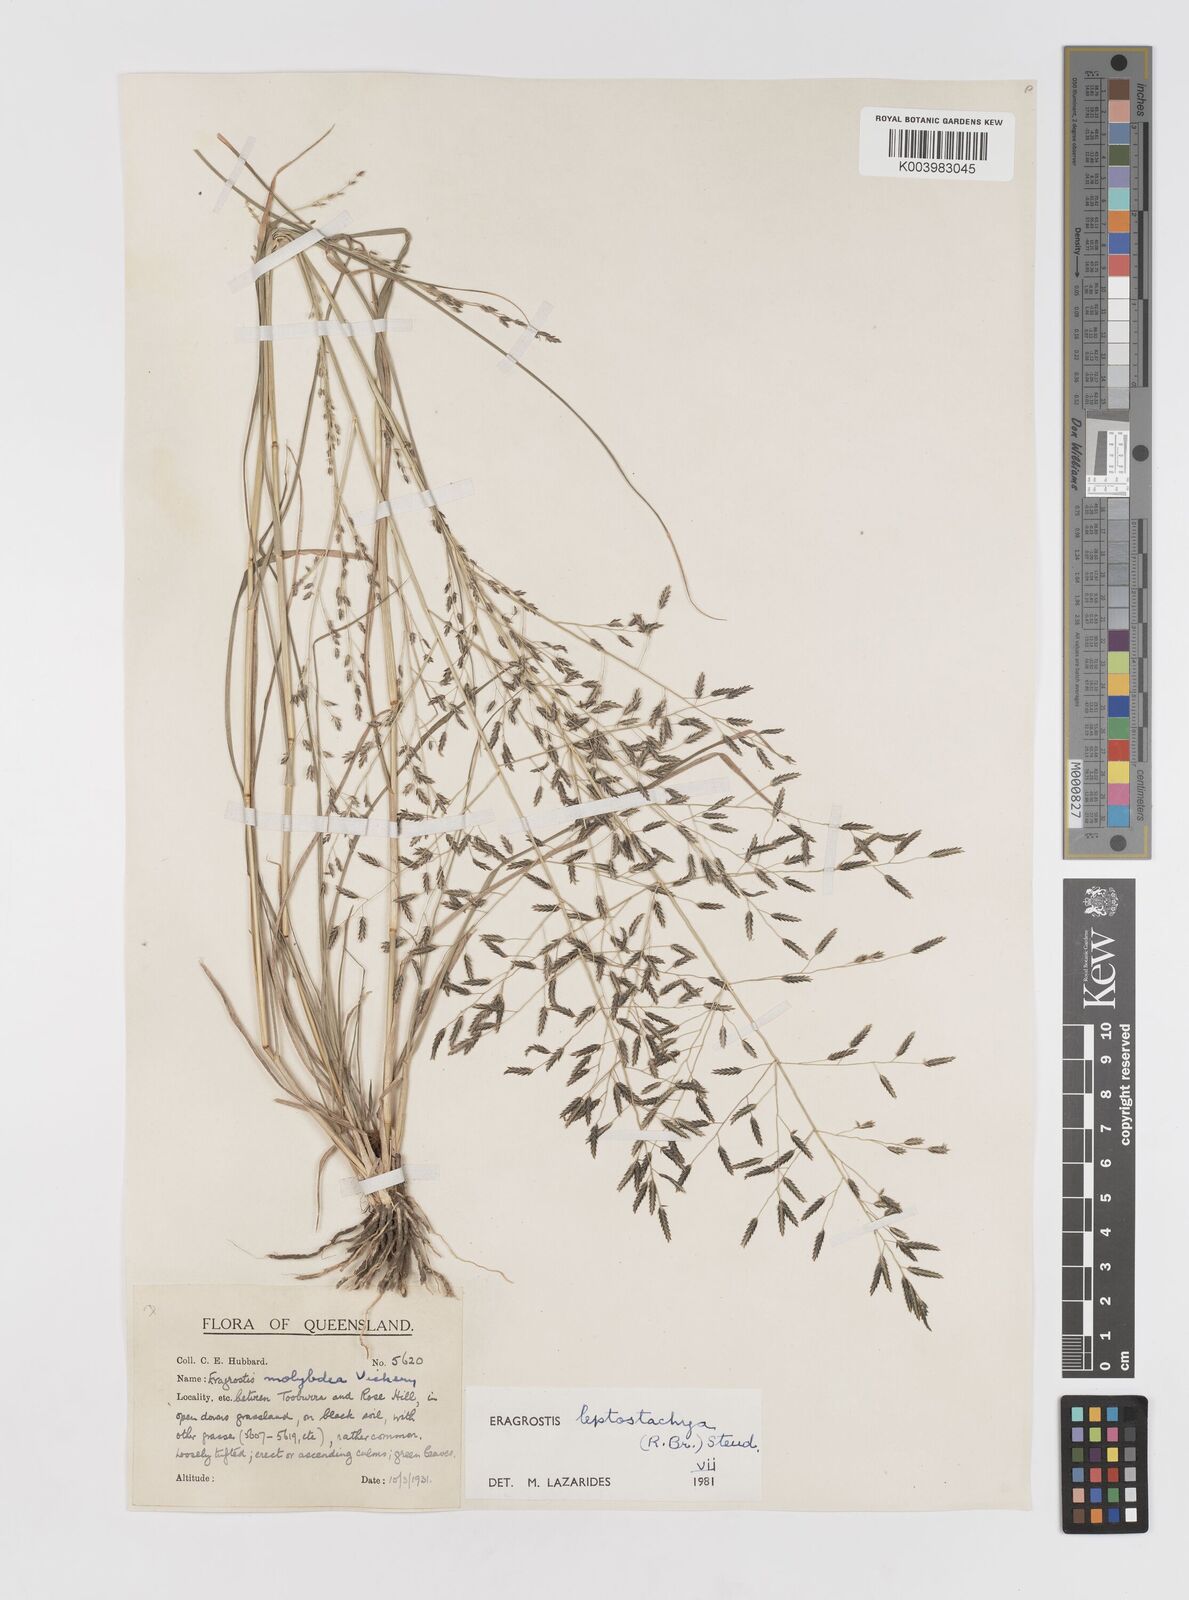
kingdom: Plantae
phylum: Tracheophyta
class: Liliopsida
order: Poales
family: Poaceae
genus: Eragrostis
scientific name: Eragrostis leptostachya
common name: Australian lovegrass
